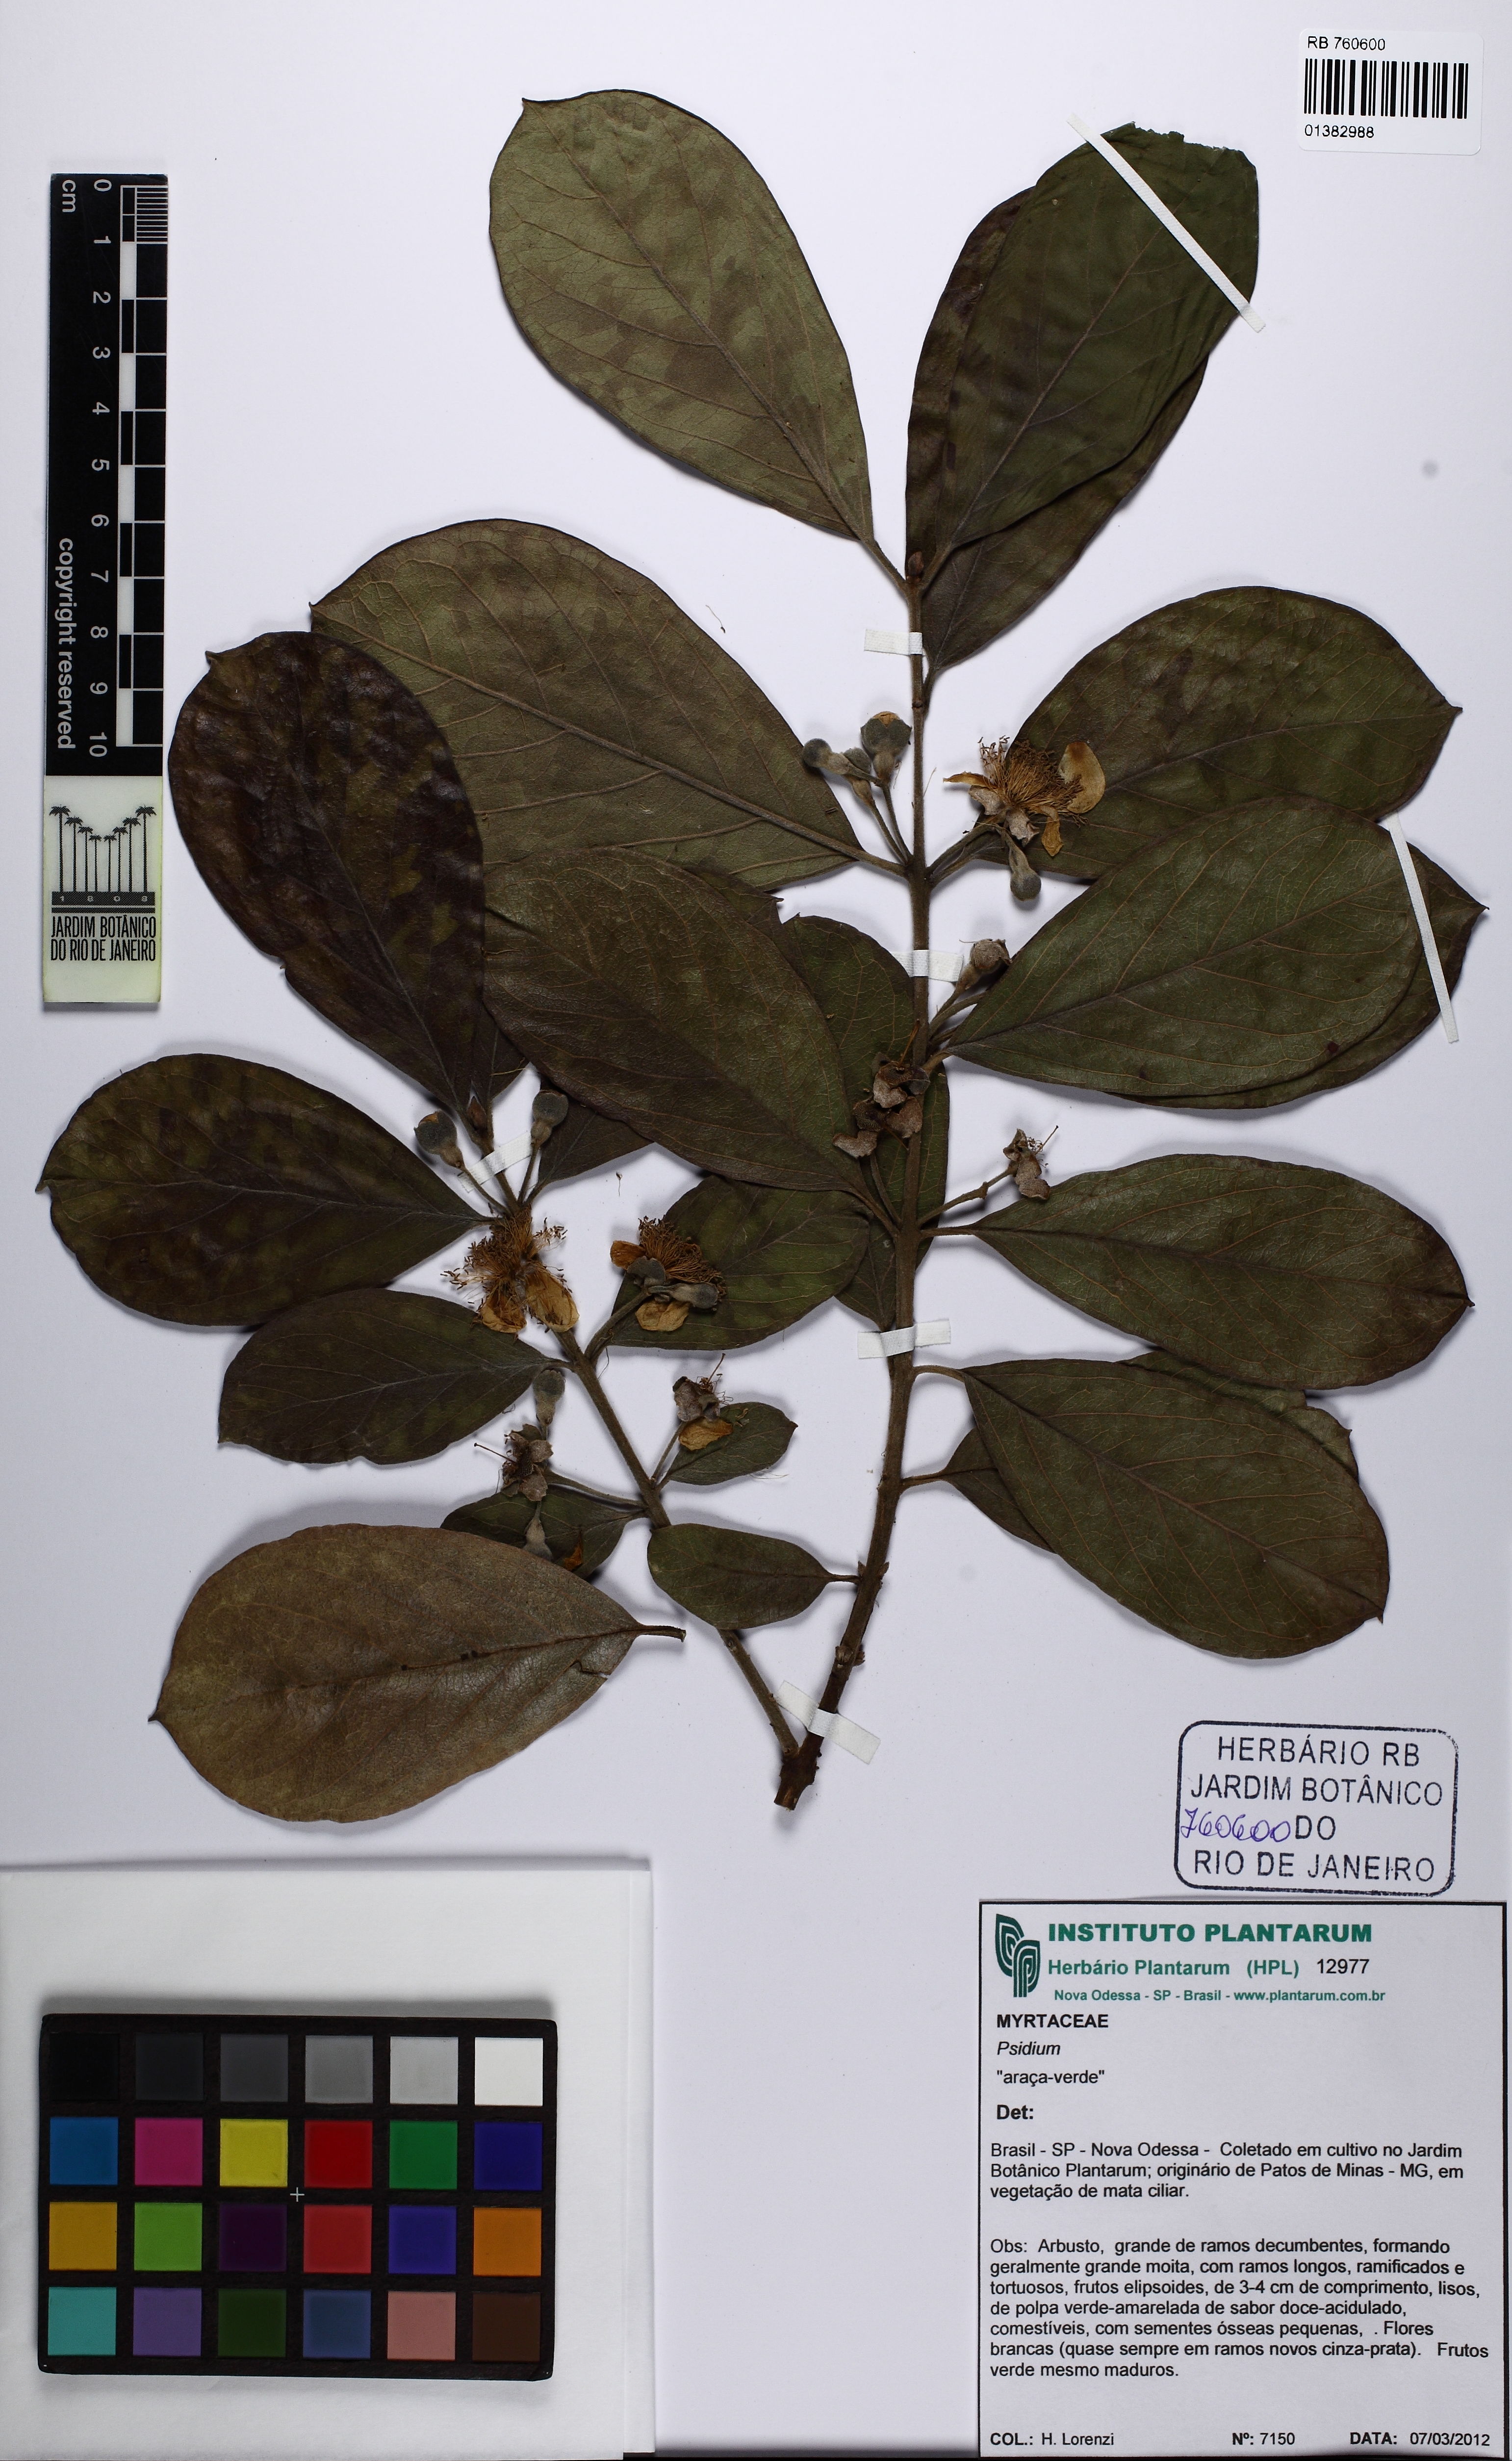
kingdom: Plantae
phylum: Tracheophyta
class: Magnoliopsida
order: Myrtales
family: Myrtaceae
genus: Psidium
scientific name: Psidium guineense
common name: Brazilian guava
